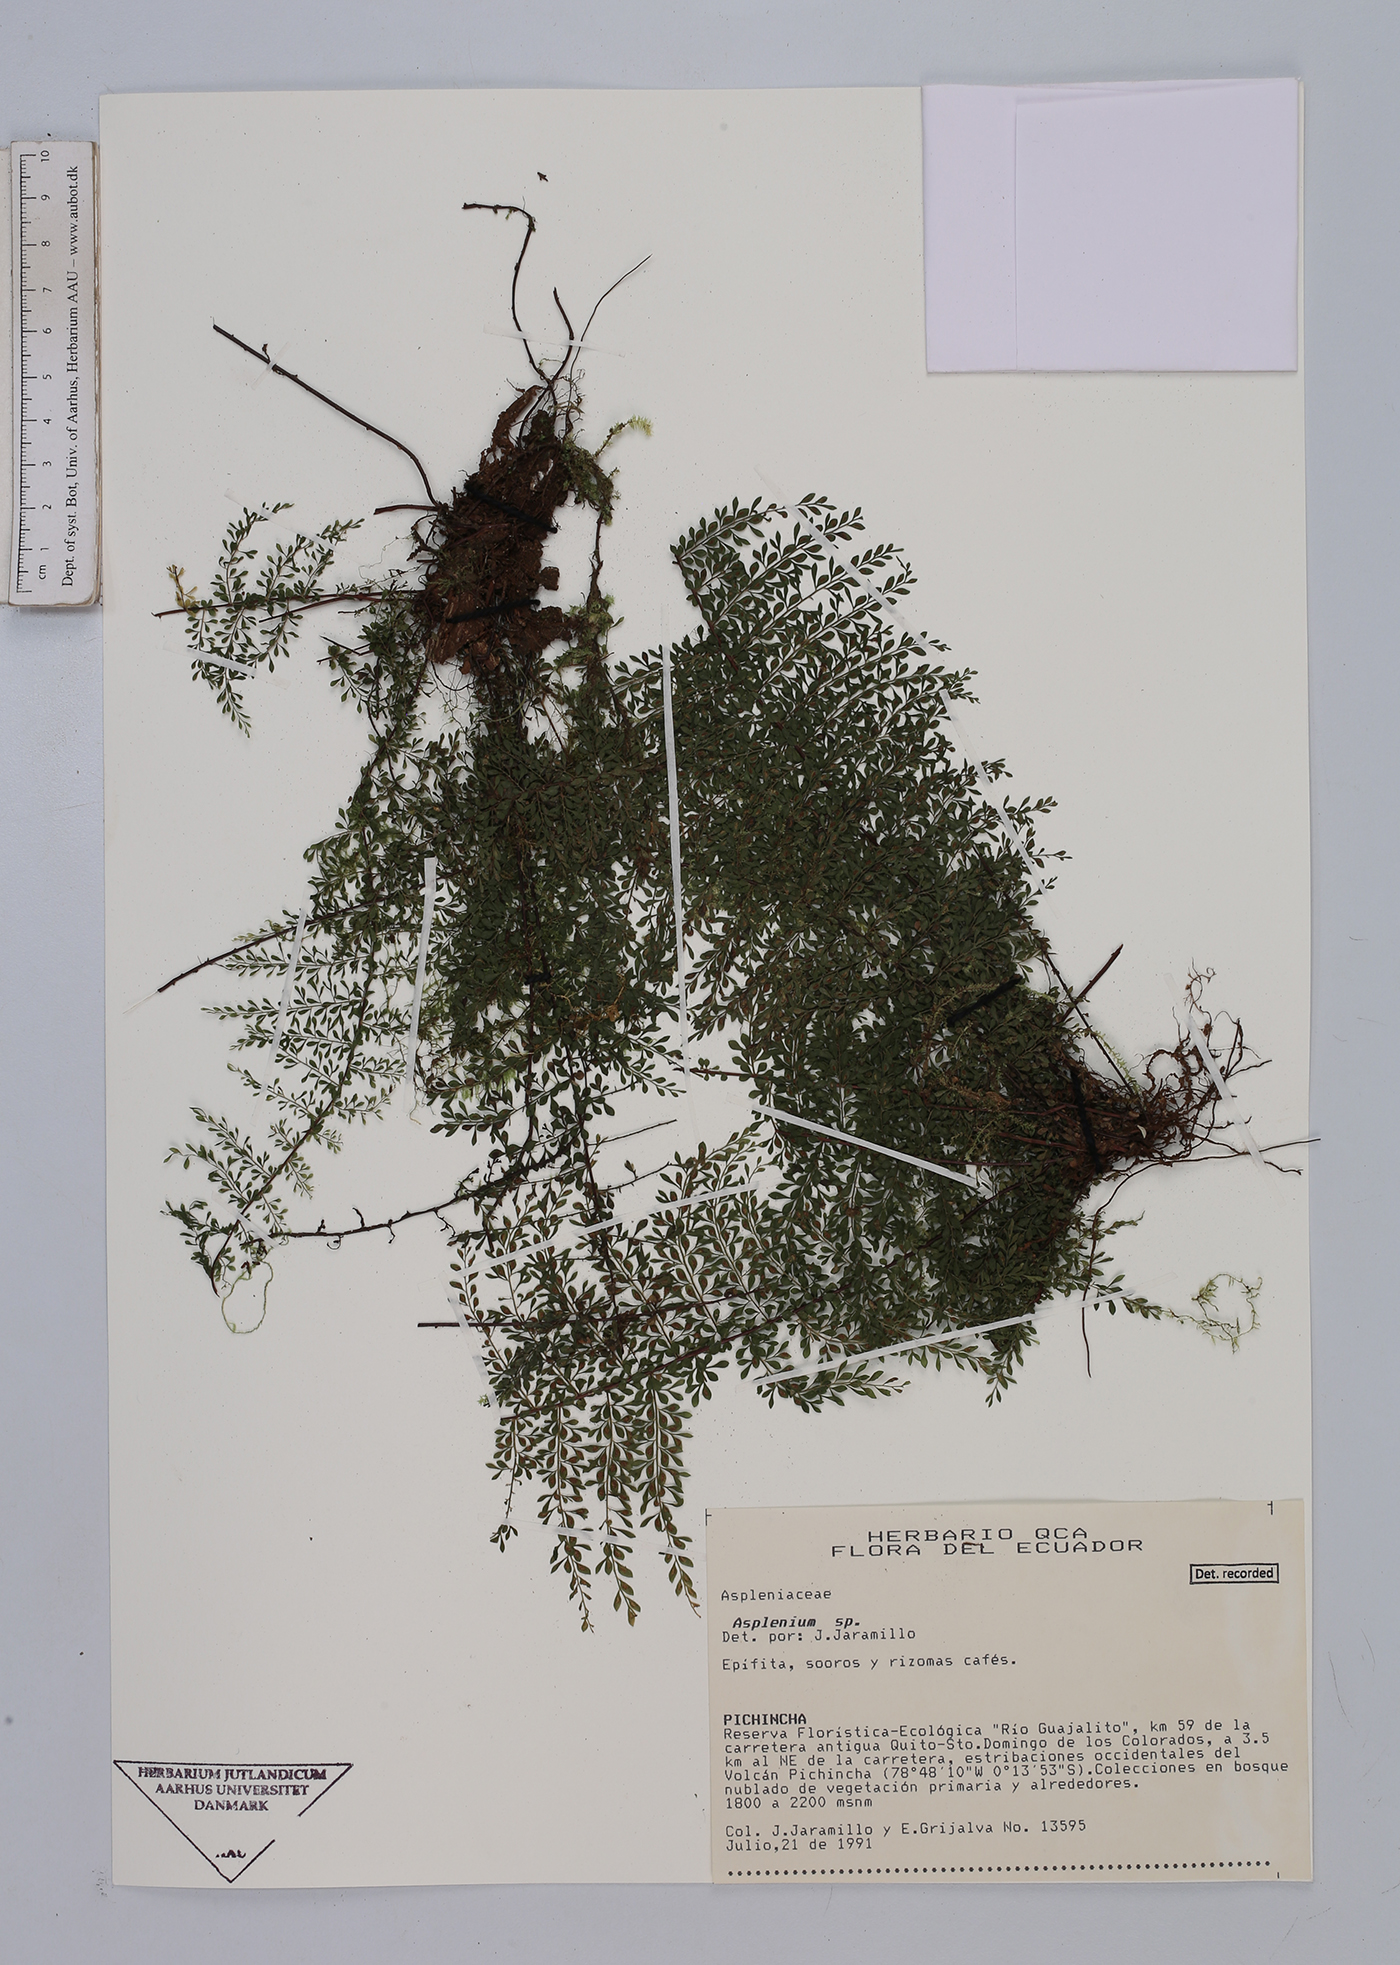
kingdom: Plantae
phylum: Tracheophyta
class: Polypodiopsida
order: Polypodiales
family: Aspleniaceae
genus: Asplenium
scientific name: Asplenium
